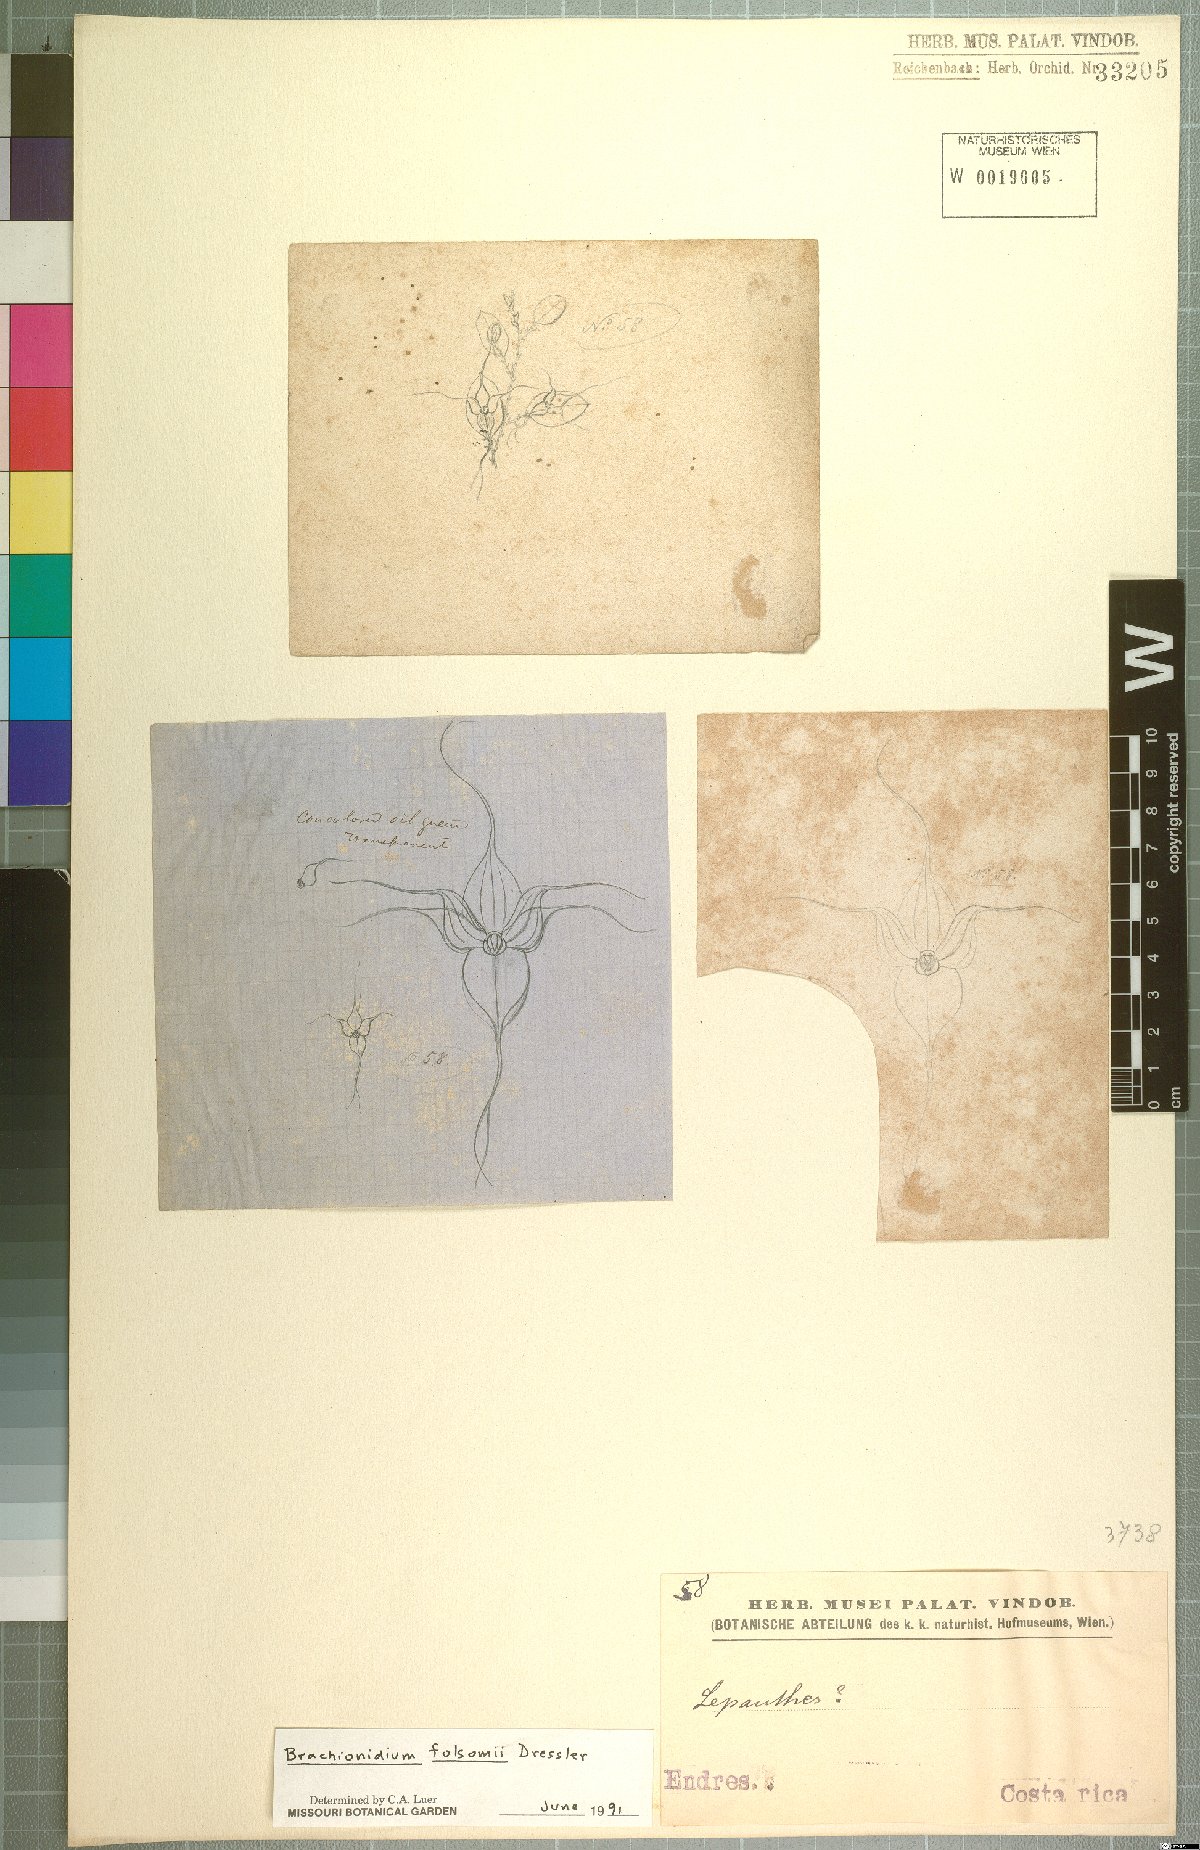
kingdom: Plantae
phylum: Tracheophyta
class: Liliopsida
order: Asparagales
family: Orchidaceae
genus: Brachionidium
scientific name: Brachionidium folsomii
